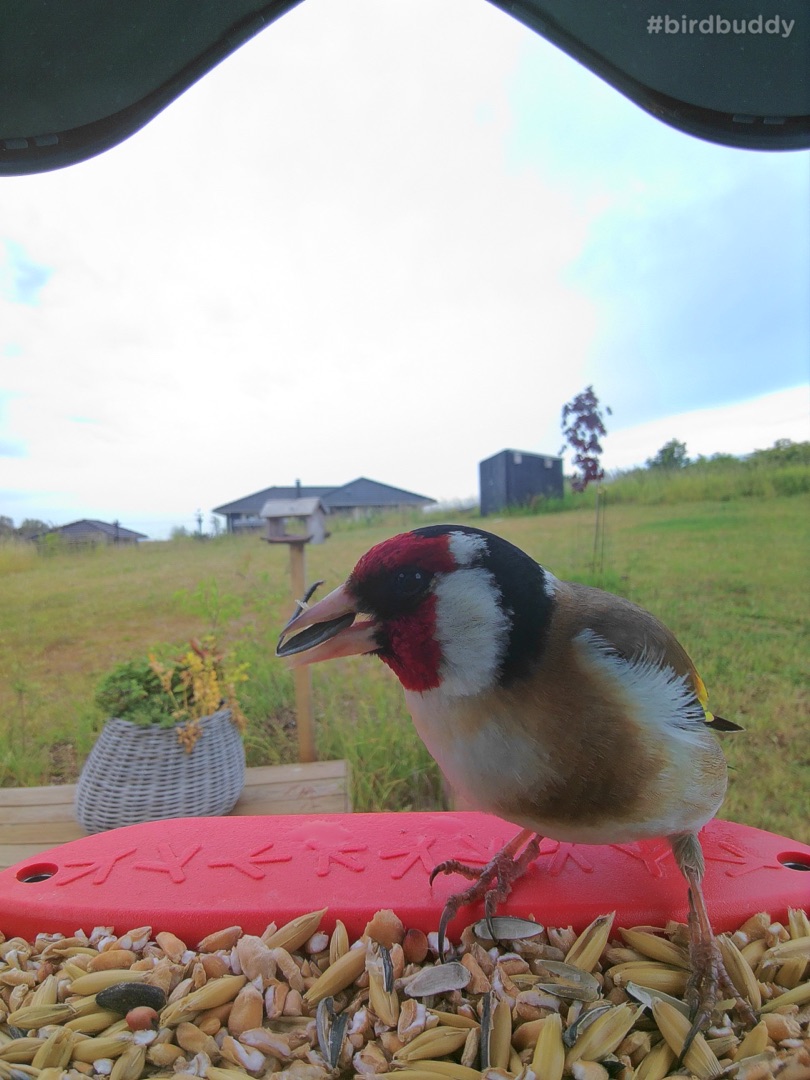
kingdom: Animalia
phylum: Chordata
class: Aves
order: Passeriformes
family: Fringillidae
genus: Carduelis
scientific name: Carduelis carduelis
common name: Stillits
